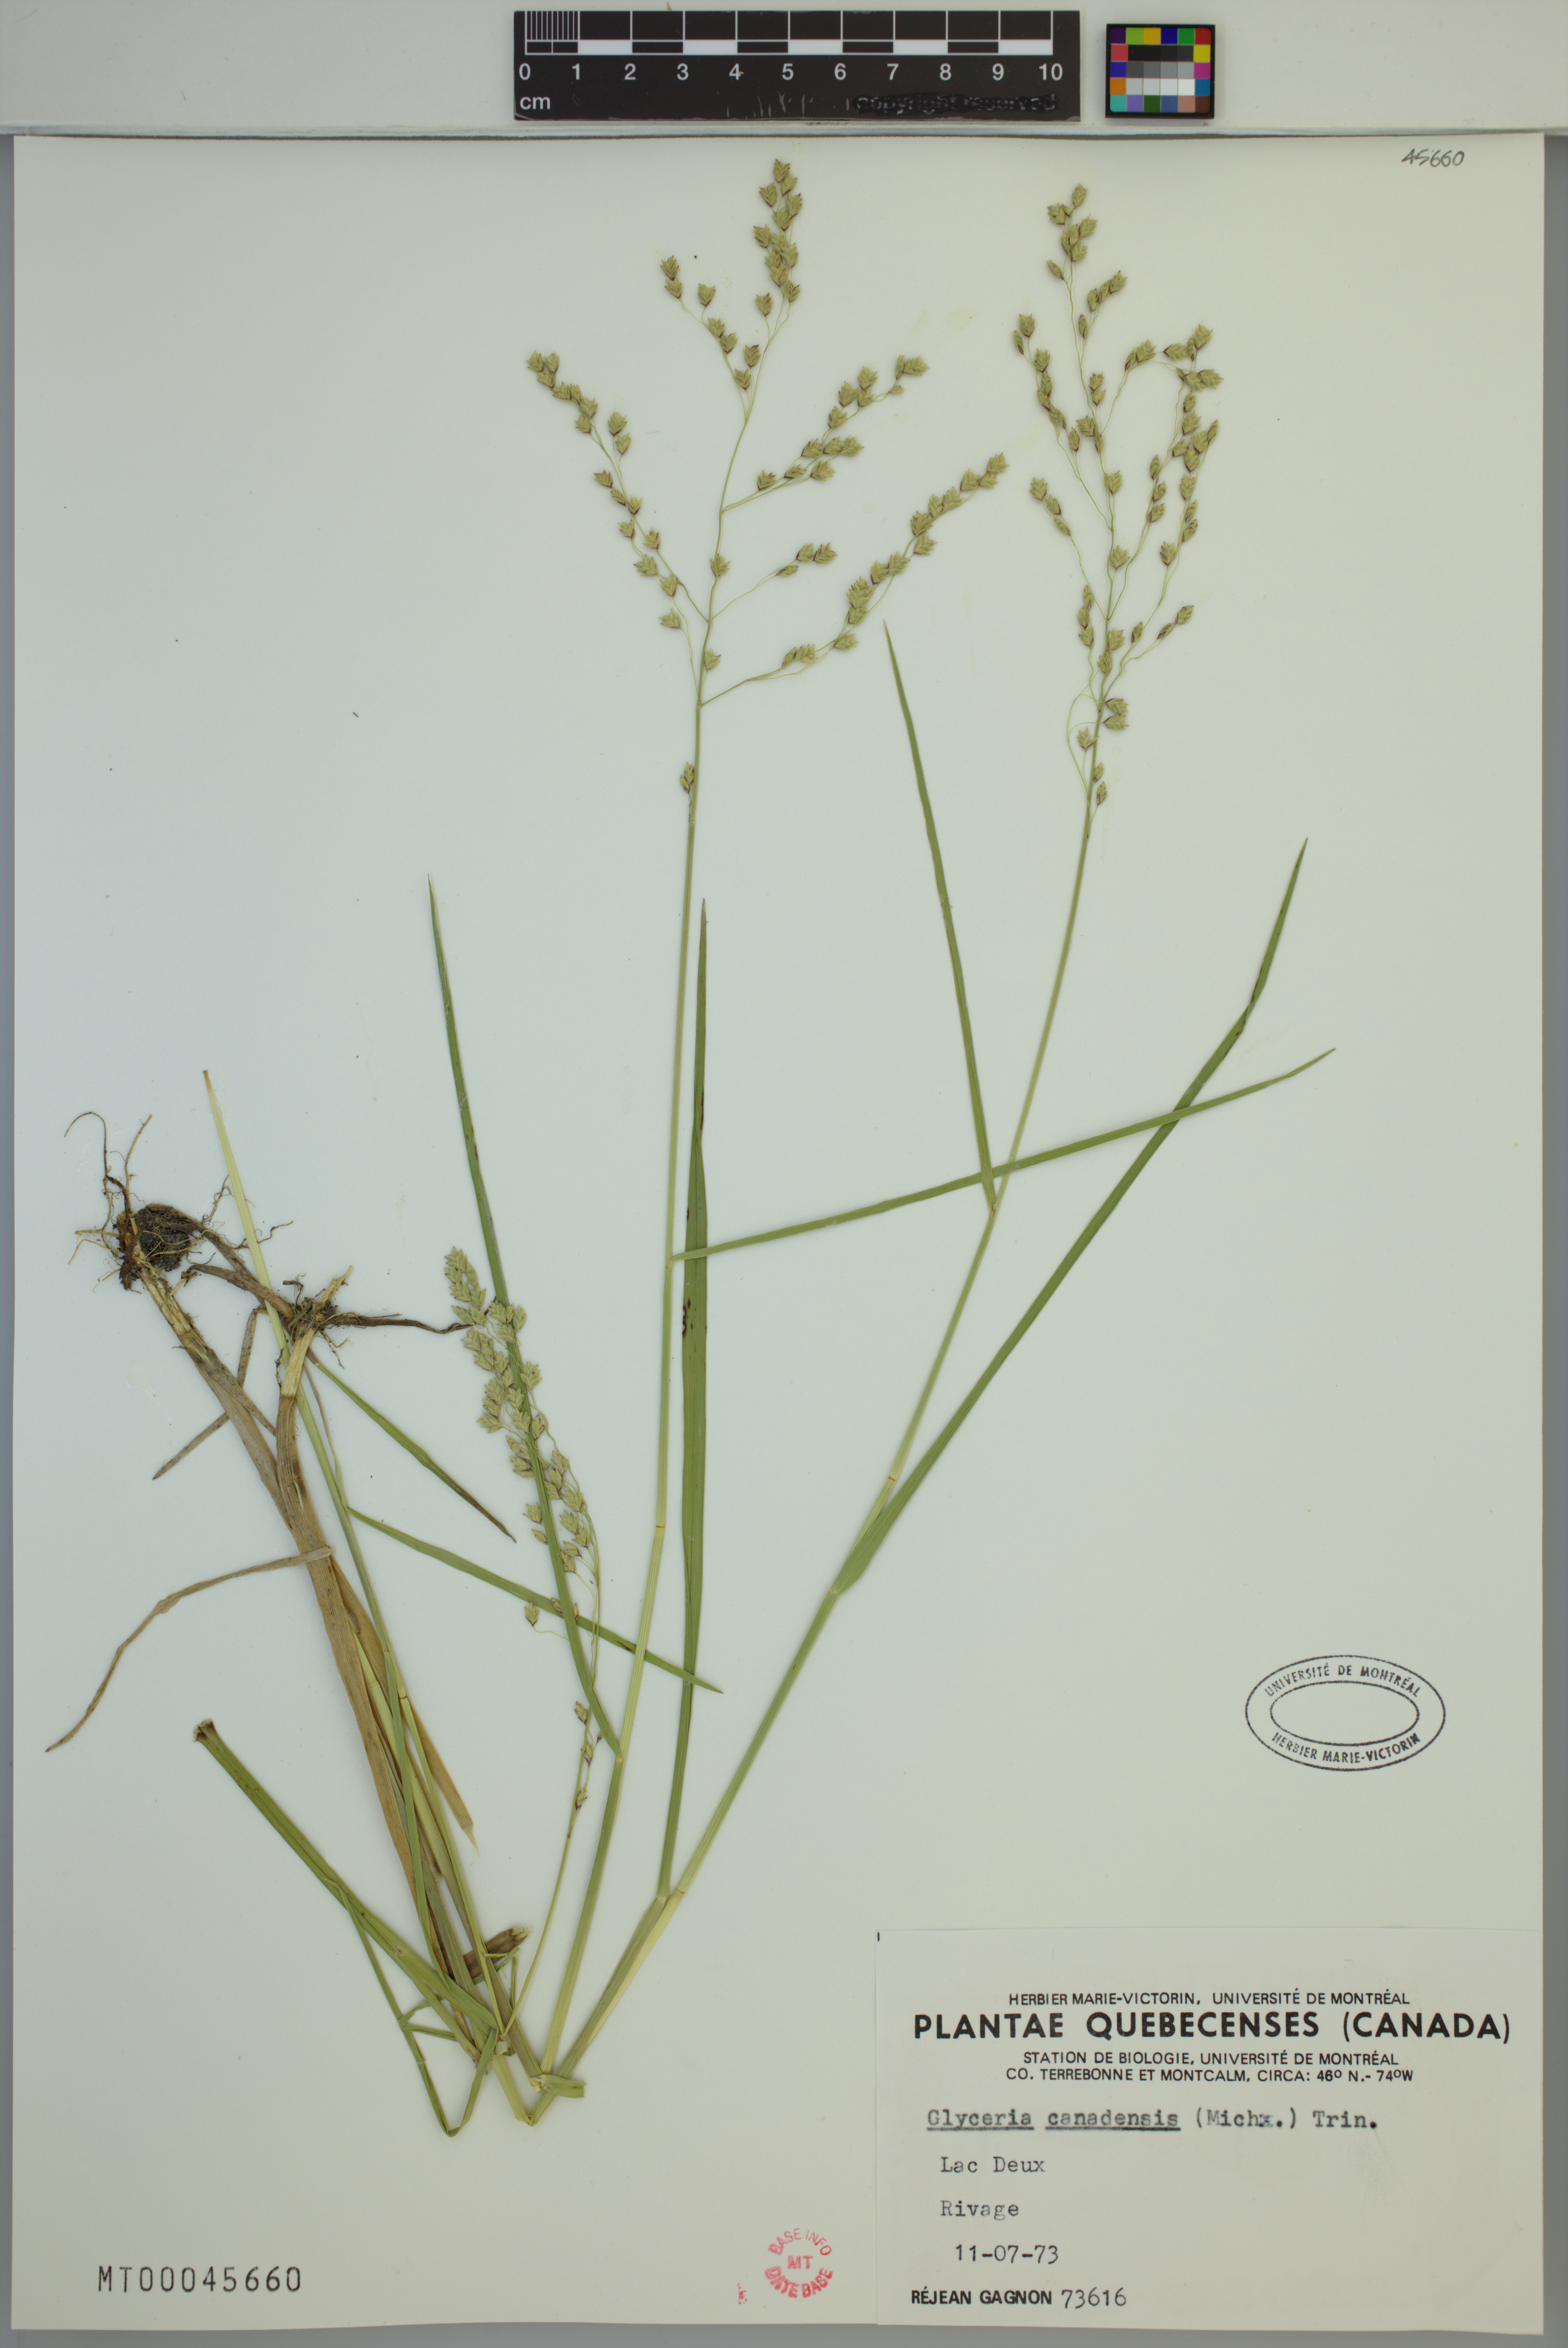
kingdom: Plantae
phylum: Tracheophyta
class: Liliopsida
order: Poales
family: Poaceae
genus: Glyceria
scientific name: Glyceria canadensis
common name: Canada mannagrass
